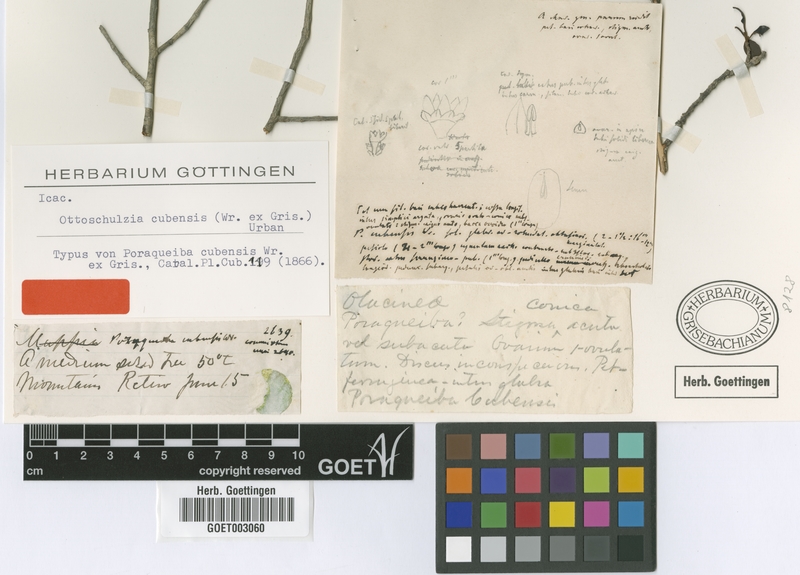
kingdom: Plantae
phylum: Tracheophyta
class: Magnoliopsida
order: Metteniusales
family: Metteniusaceae
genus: Ottoschulzia
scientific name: Ottoschulzia cubensis
